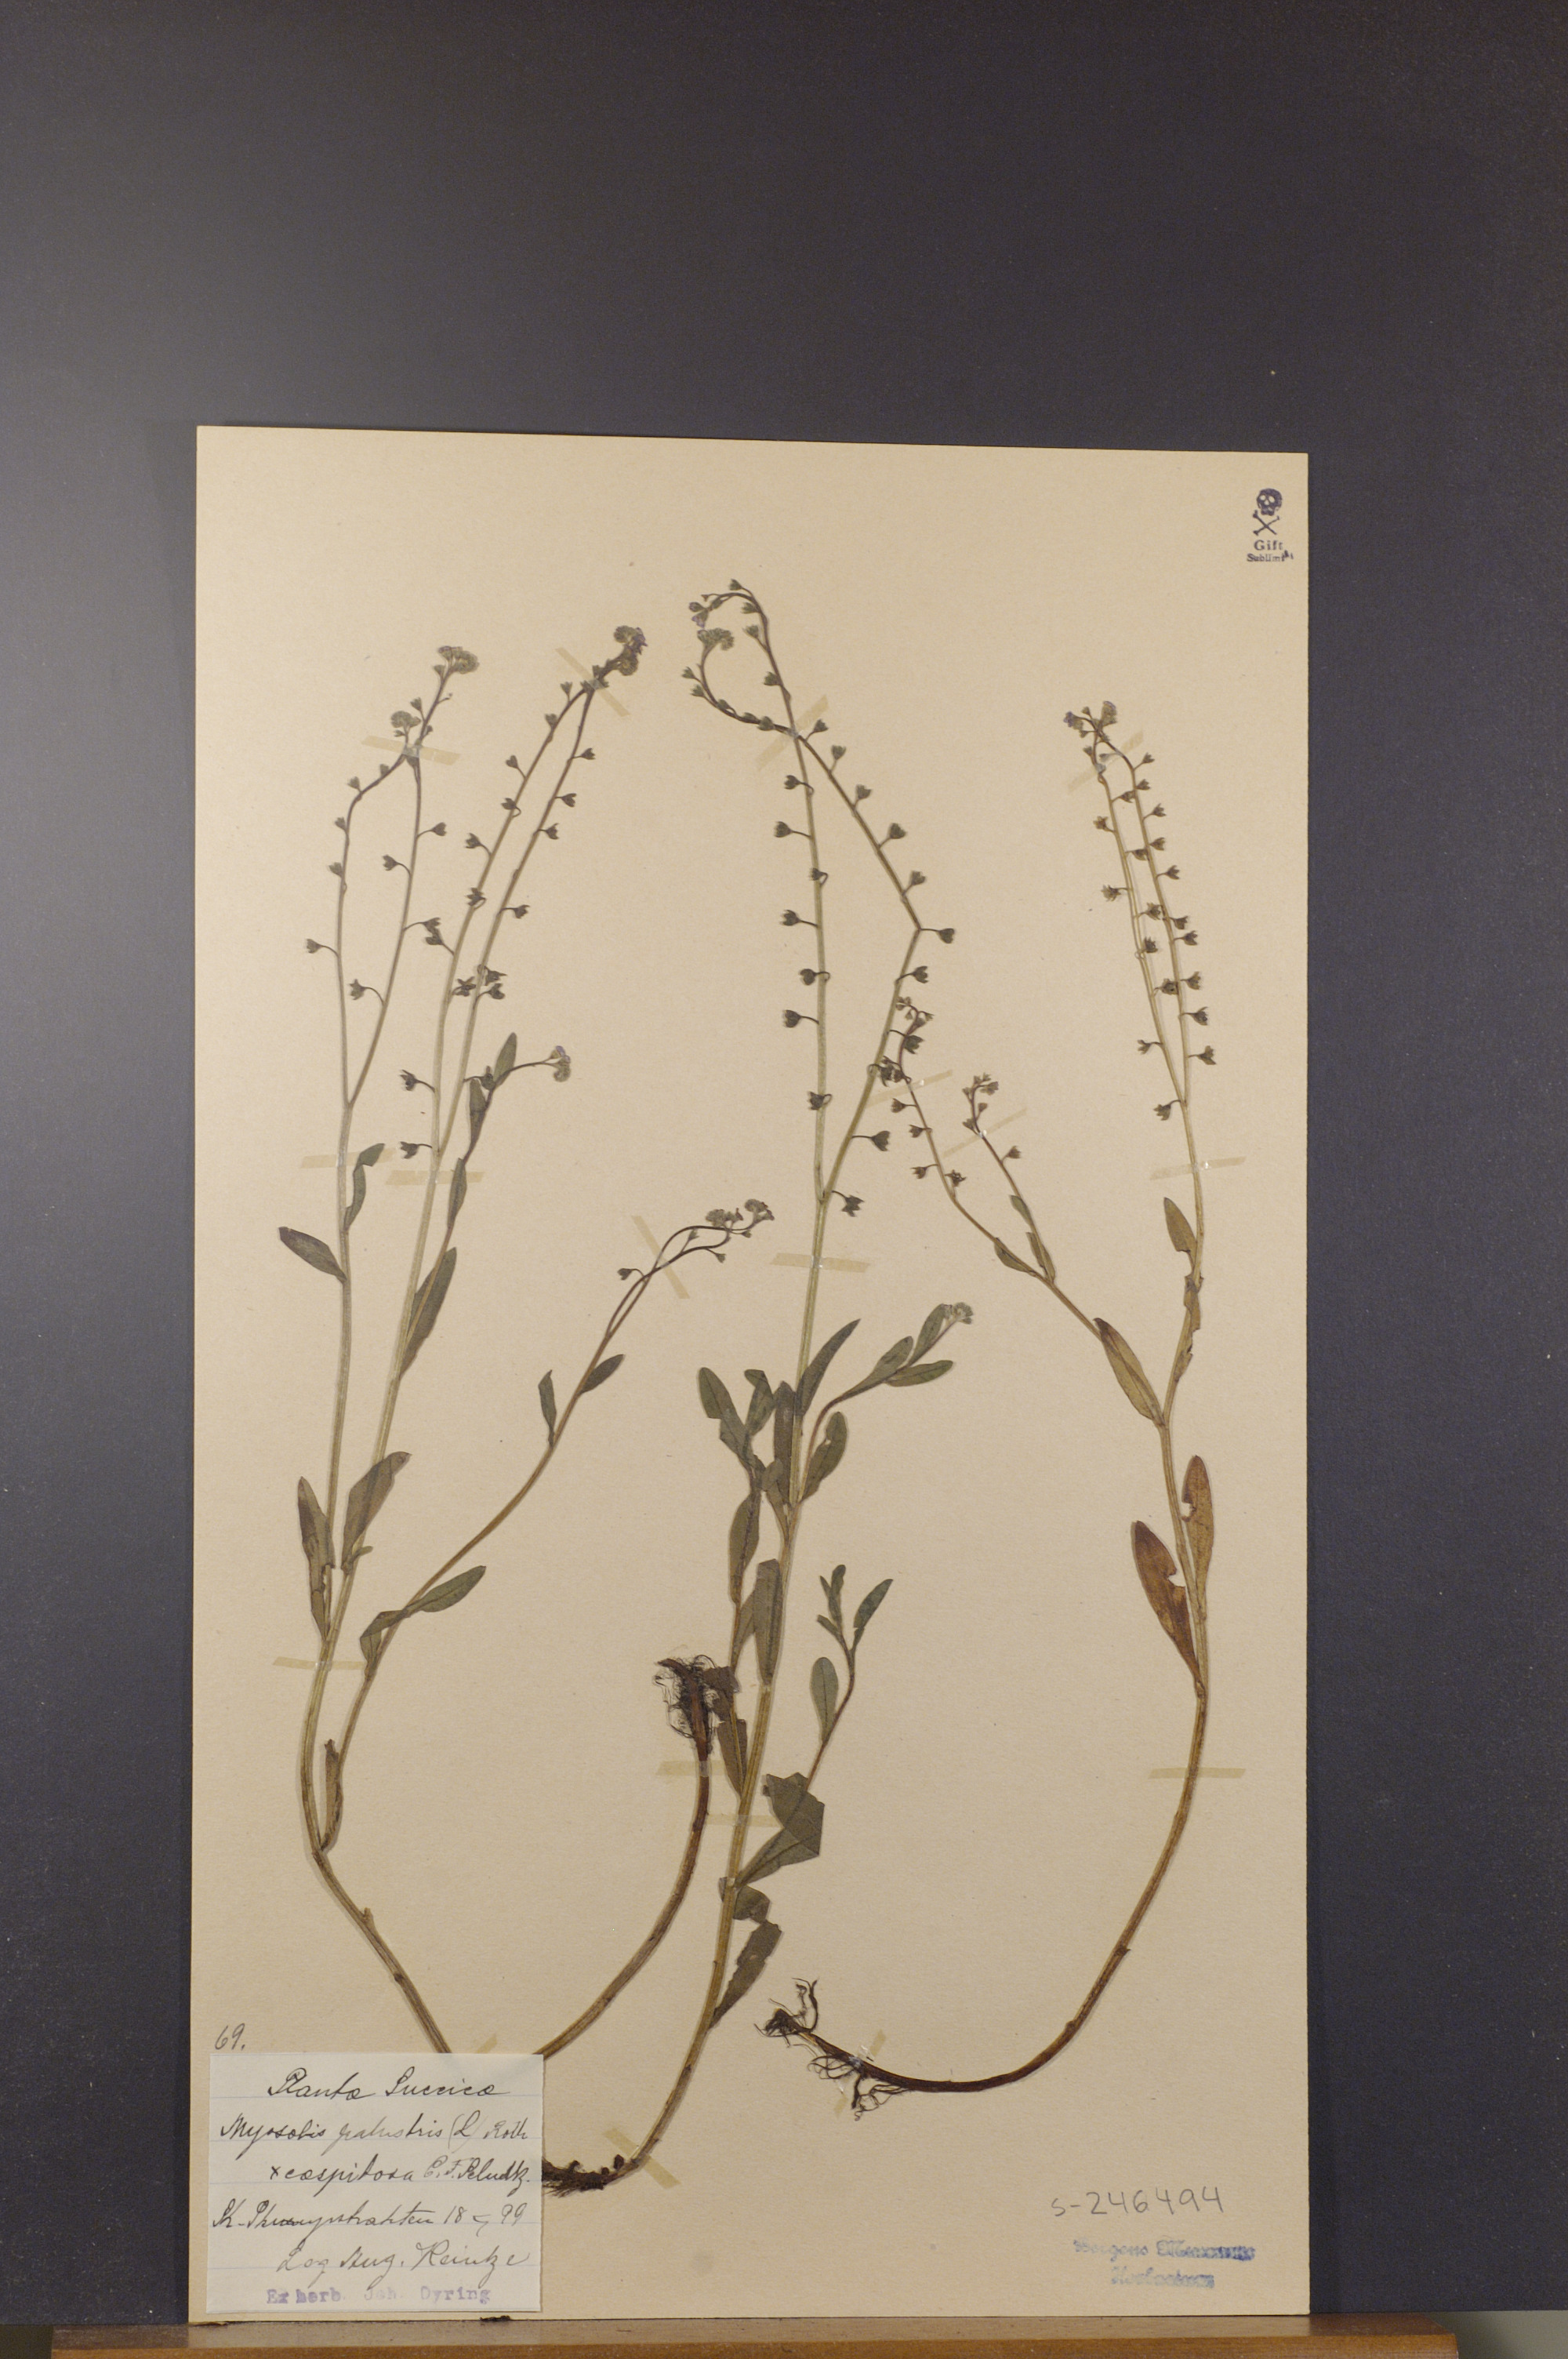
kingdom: Plantae
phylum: Tracheophyta
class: Magnoliopsida
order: Boraginales
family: Boraginaceae
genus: Myosotis
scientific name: Myosotis scorpioides
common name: Water forget-me-not
